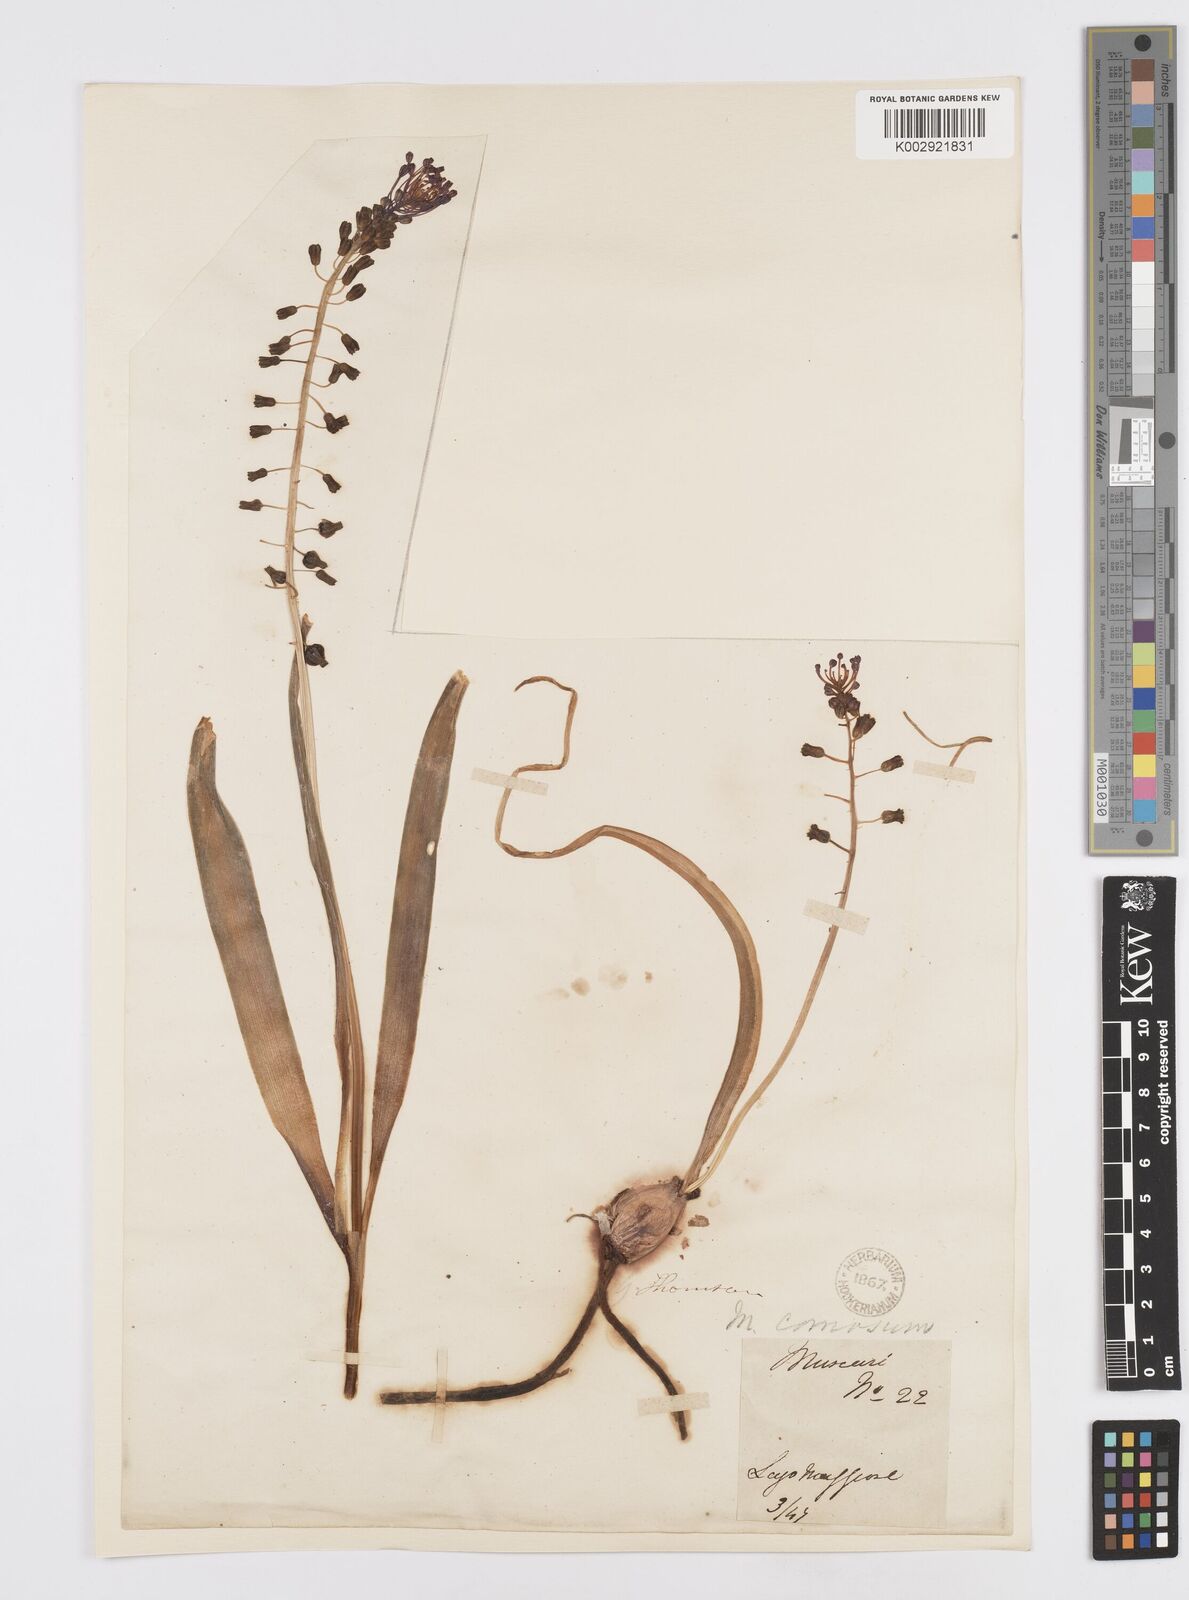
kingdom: Plantae
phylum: Tracheophyta
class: Liliopsida
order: Asparagales
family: Asparagaceae
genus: Muscari
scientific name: Muscari comosum
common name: Tassel hyacinth
